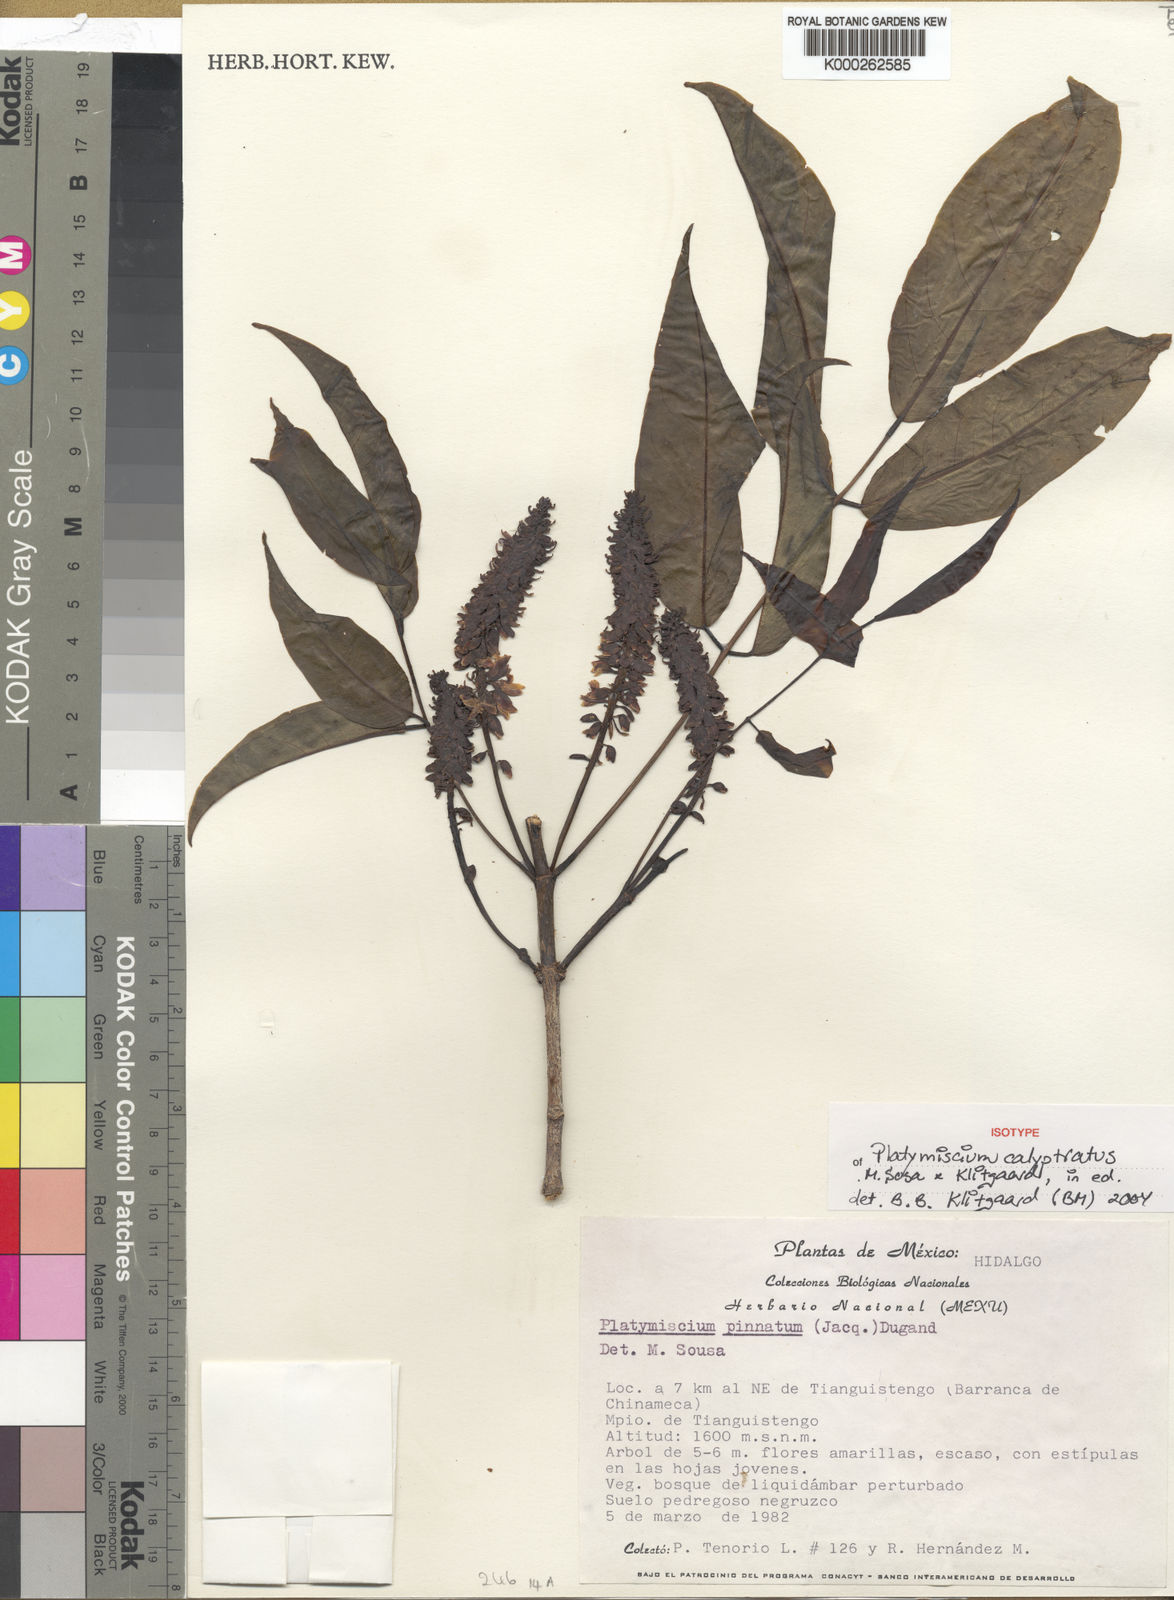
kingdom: Plantae
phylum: Tracheophyta
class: Magnoliopsida
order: Fabales
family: Fabaceae
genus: Platymiscium
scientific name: Platymiscium calyptratum
